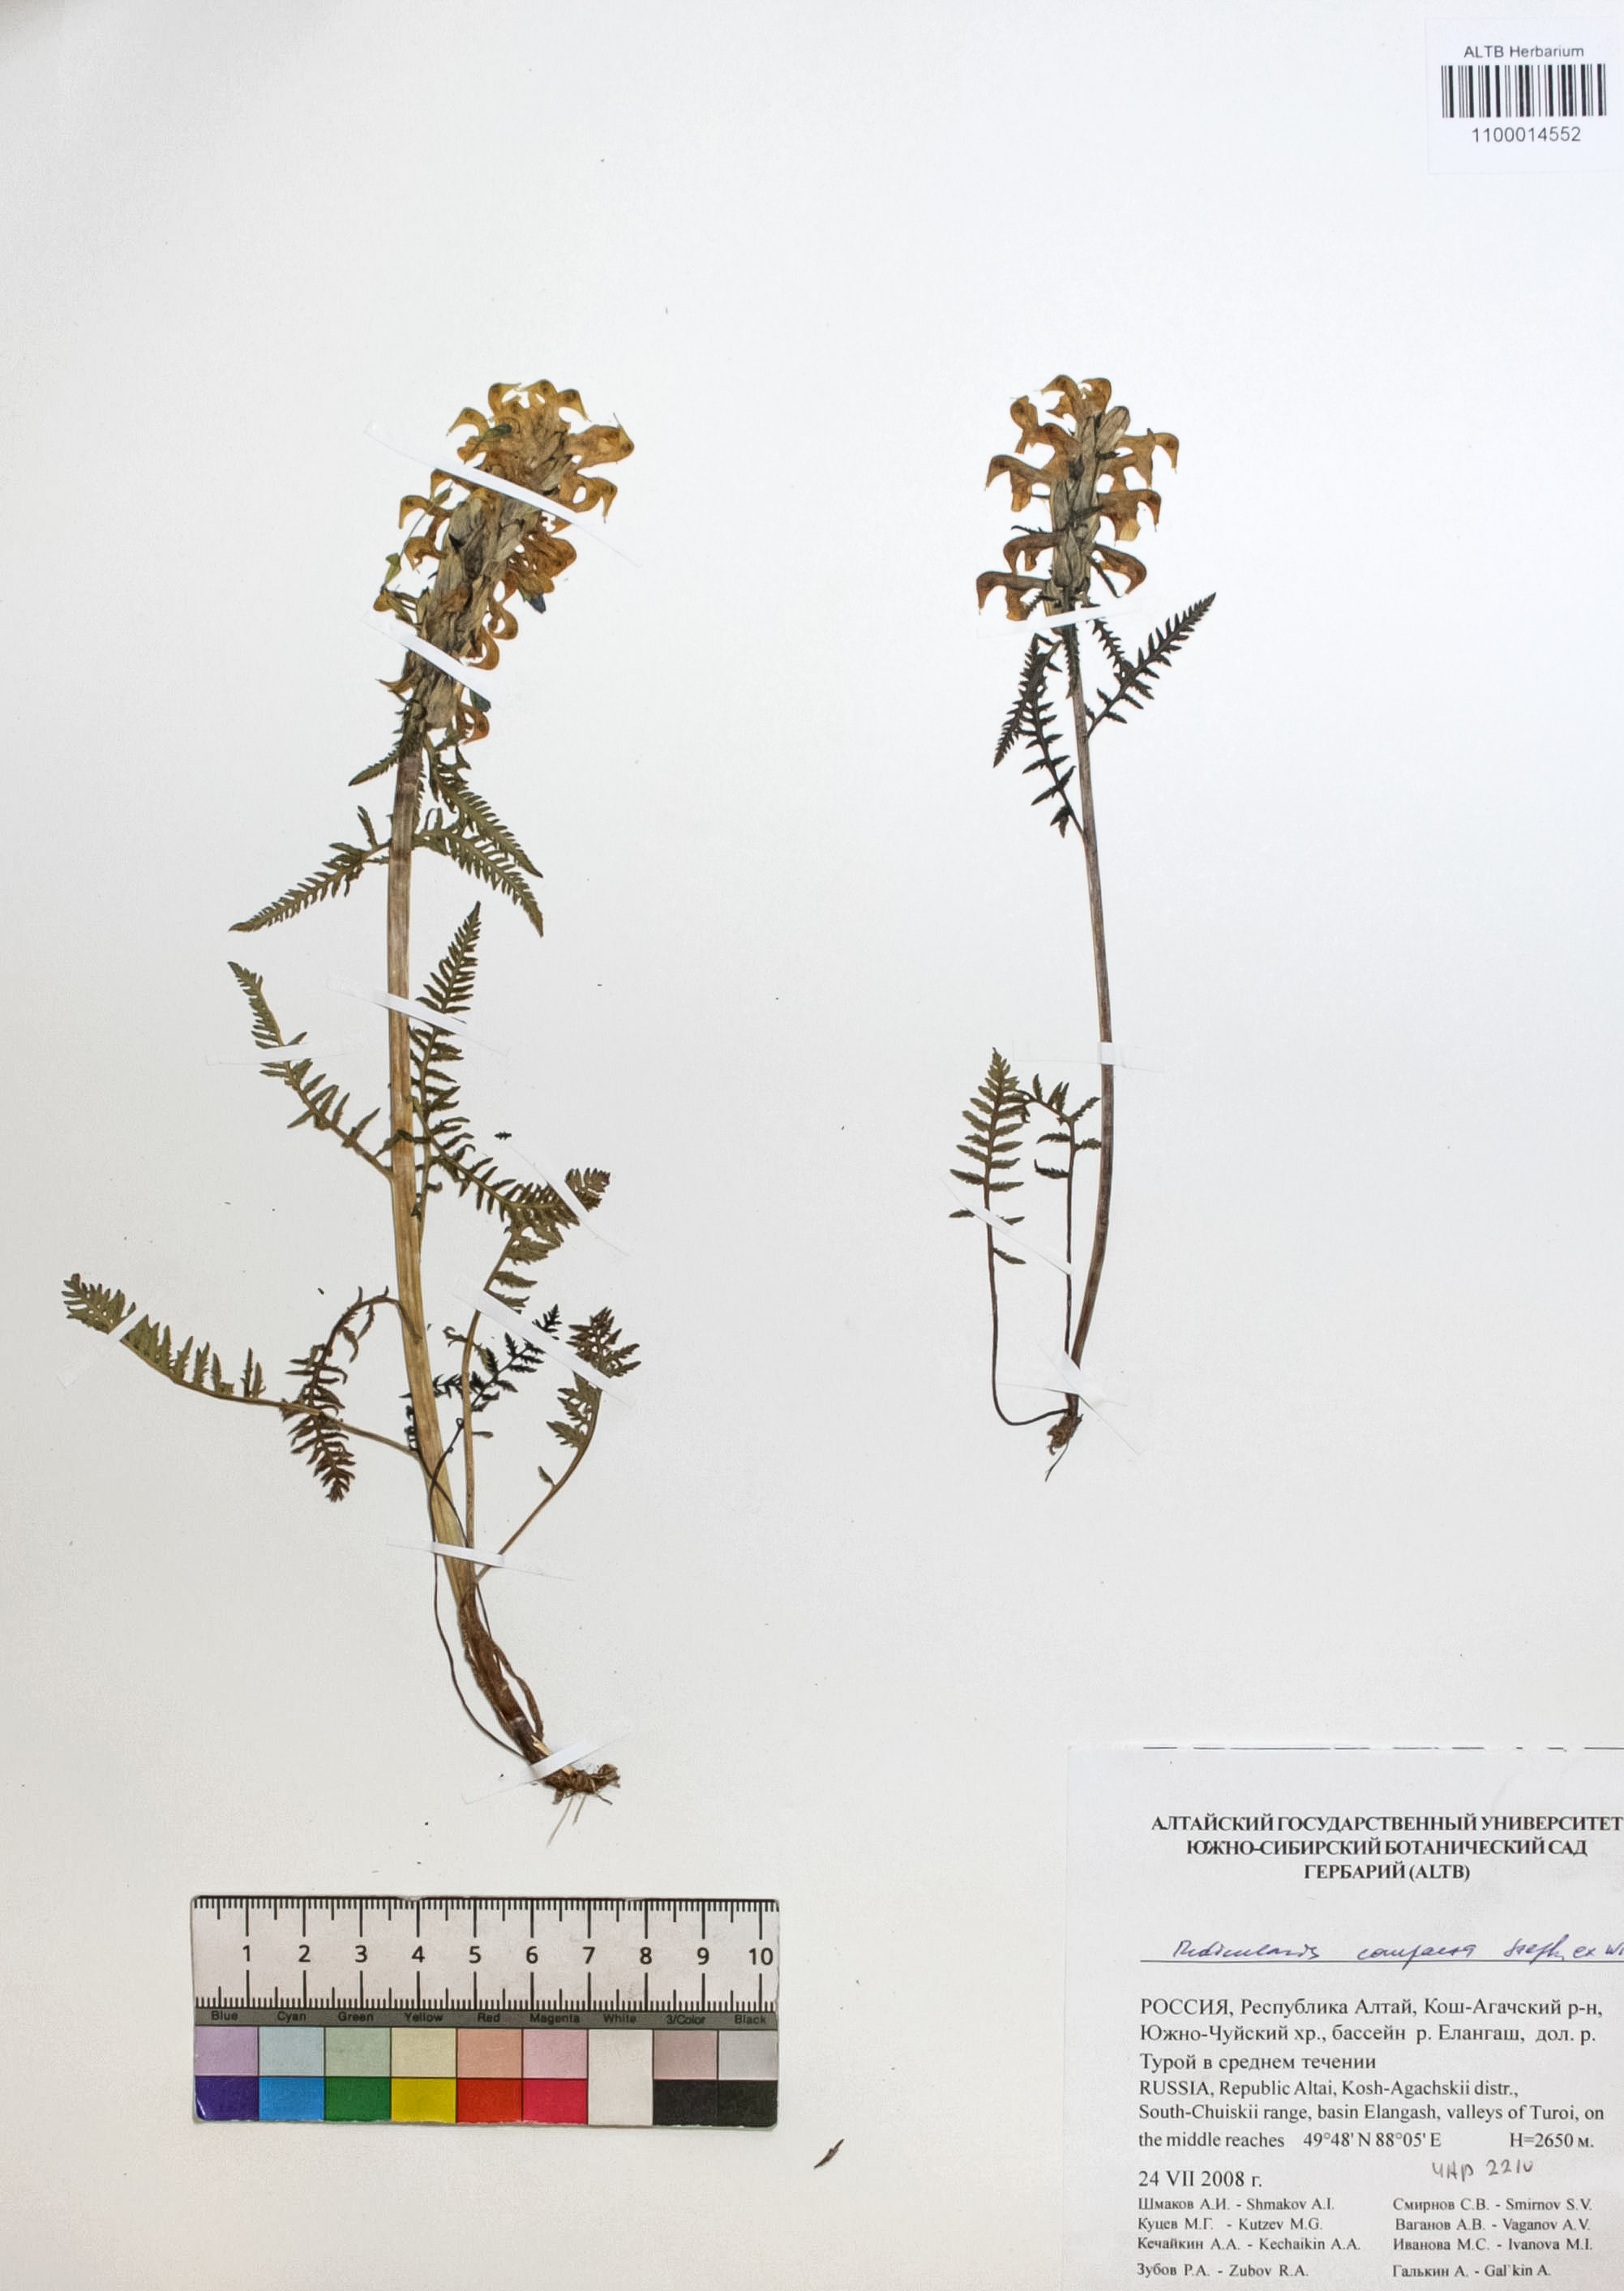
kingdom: Plantae
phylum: Tracheophyta
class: Magnoliopsida
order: Lamiales
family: Orobanchaceae
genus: Pedicularis
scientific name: Pedicularis compacta
